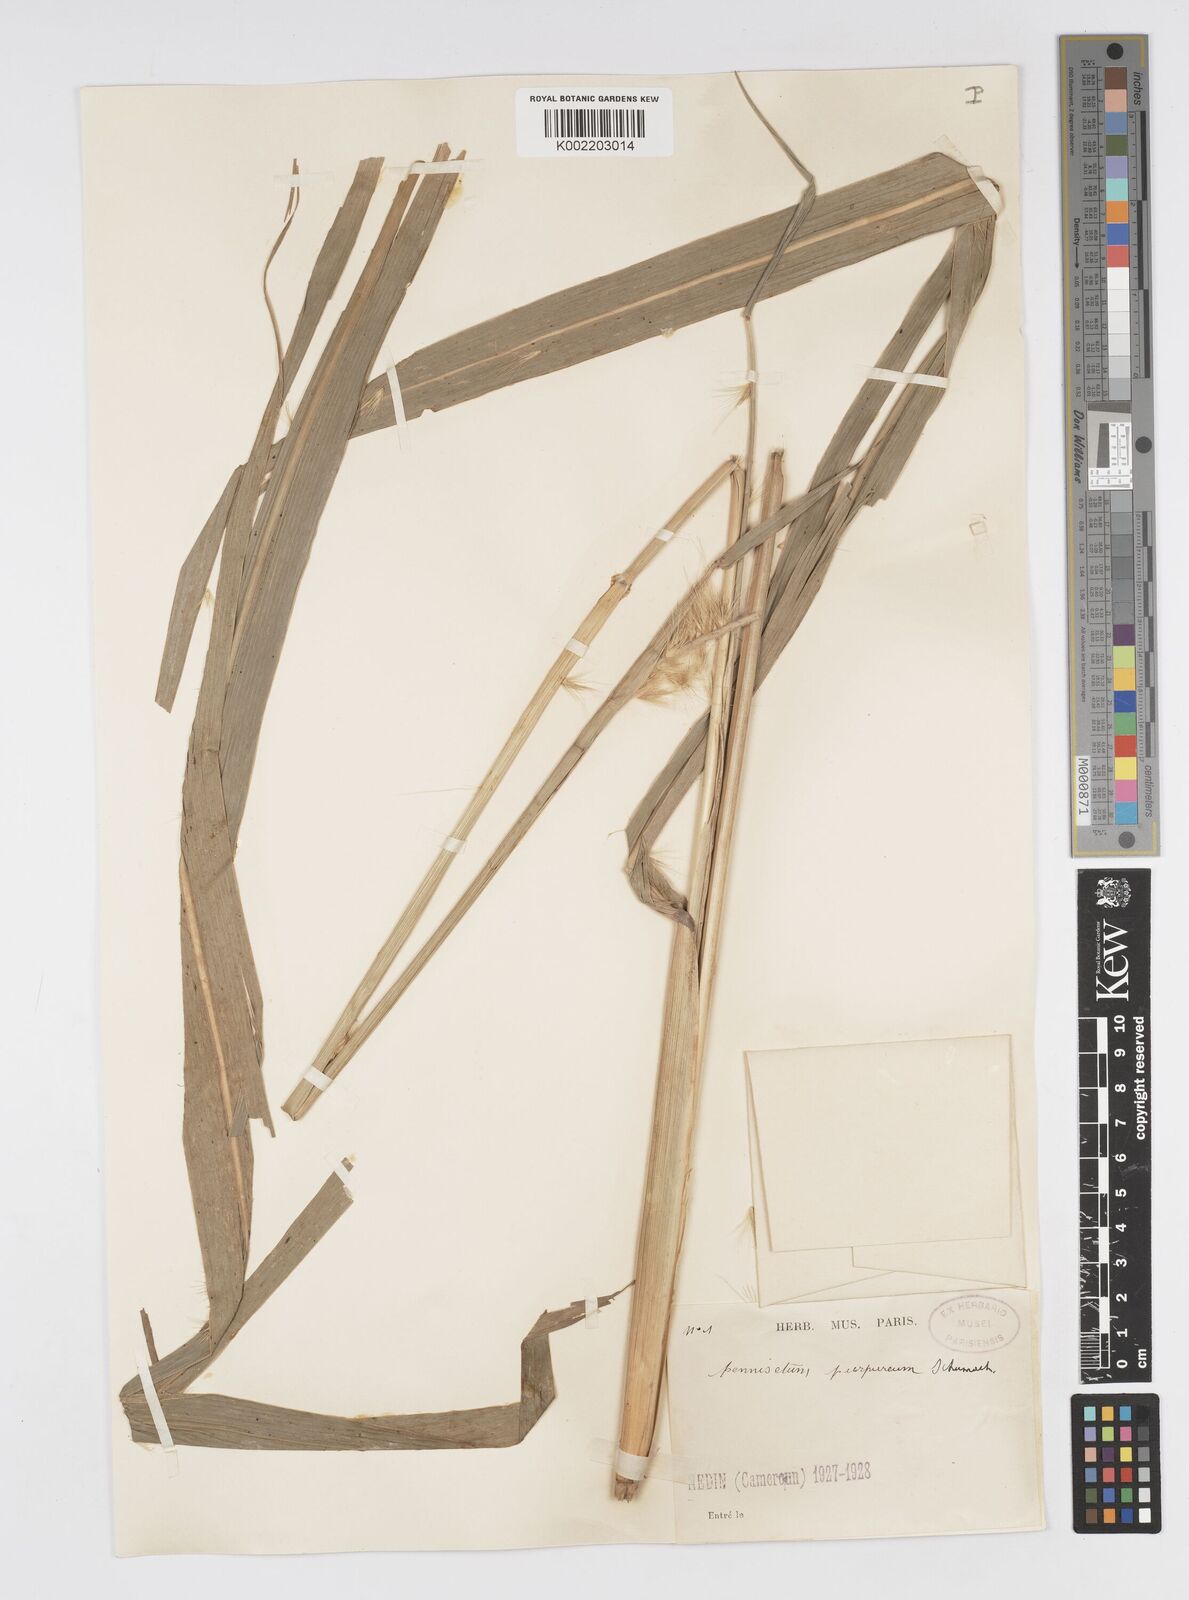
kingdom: Plantae
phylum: Tracheophyta
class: Liliopsida
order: Poales
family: Poaceae
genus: Cenchrus
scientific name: Cenchrus purpureus
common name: Elephant grass
